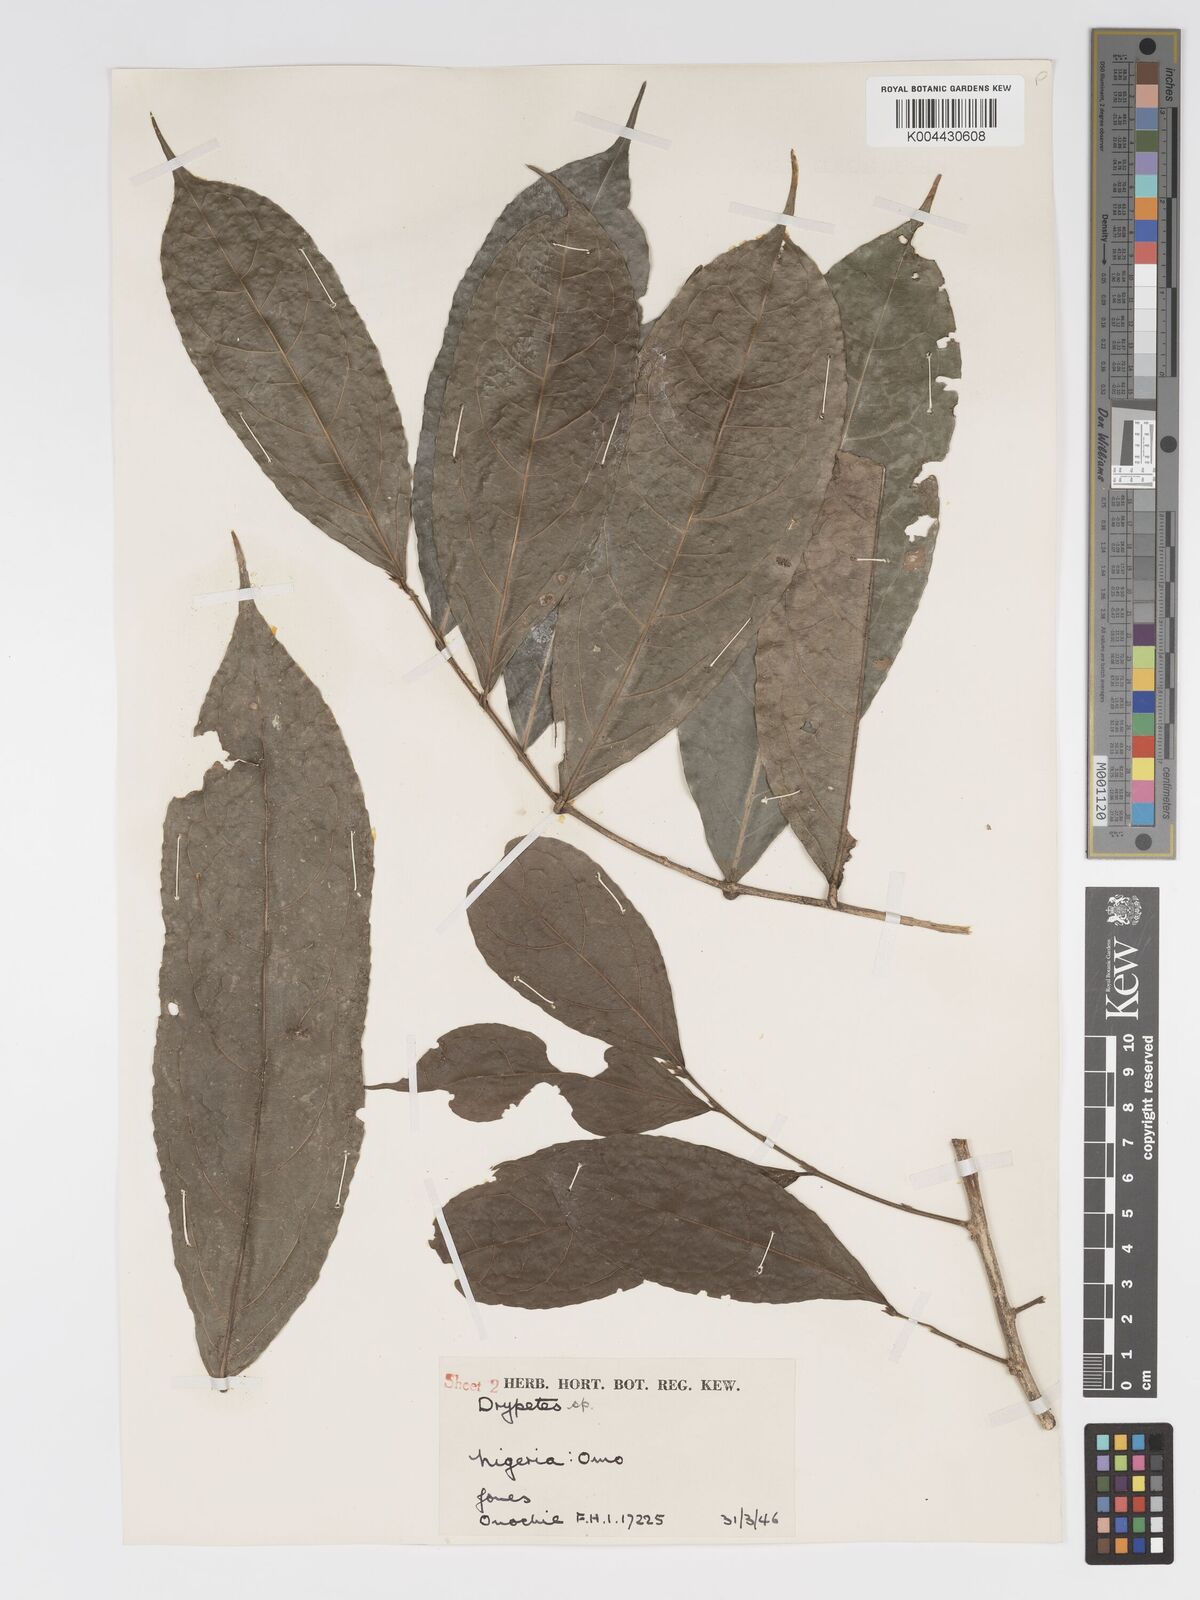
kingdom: Plantae
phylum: Tracheophyta
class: Magnoliopsida
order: Malpighiales
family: Putranjivaceae
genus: Drypetes
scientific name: Drypetes stipularis
